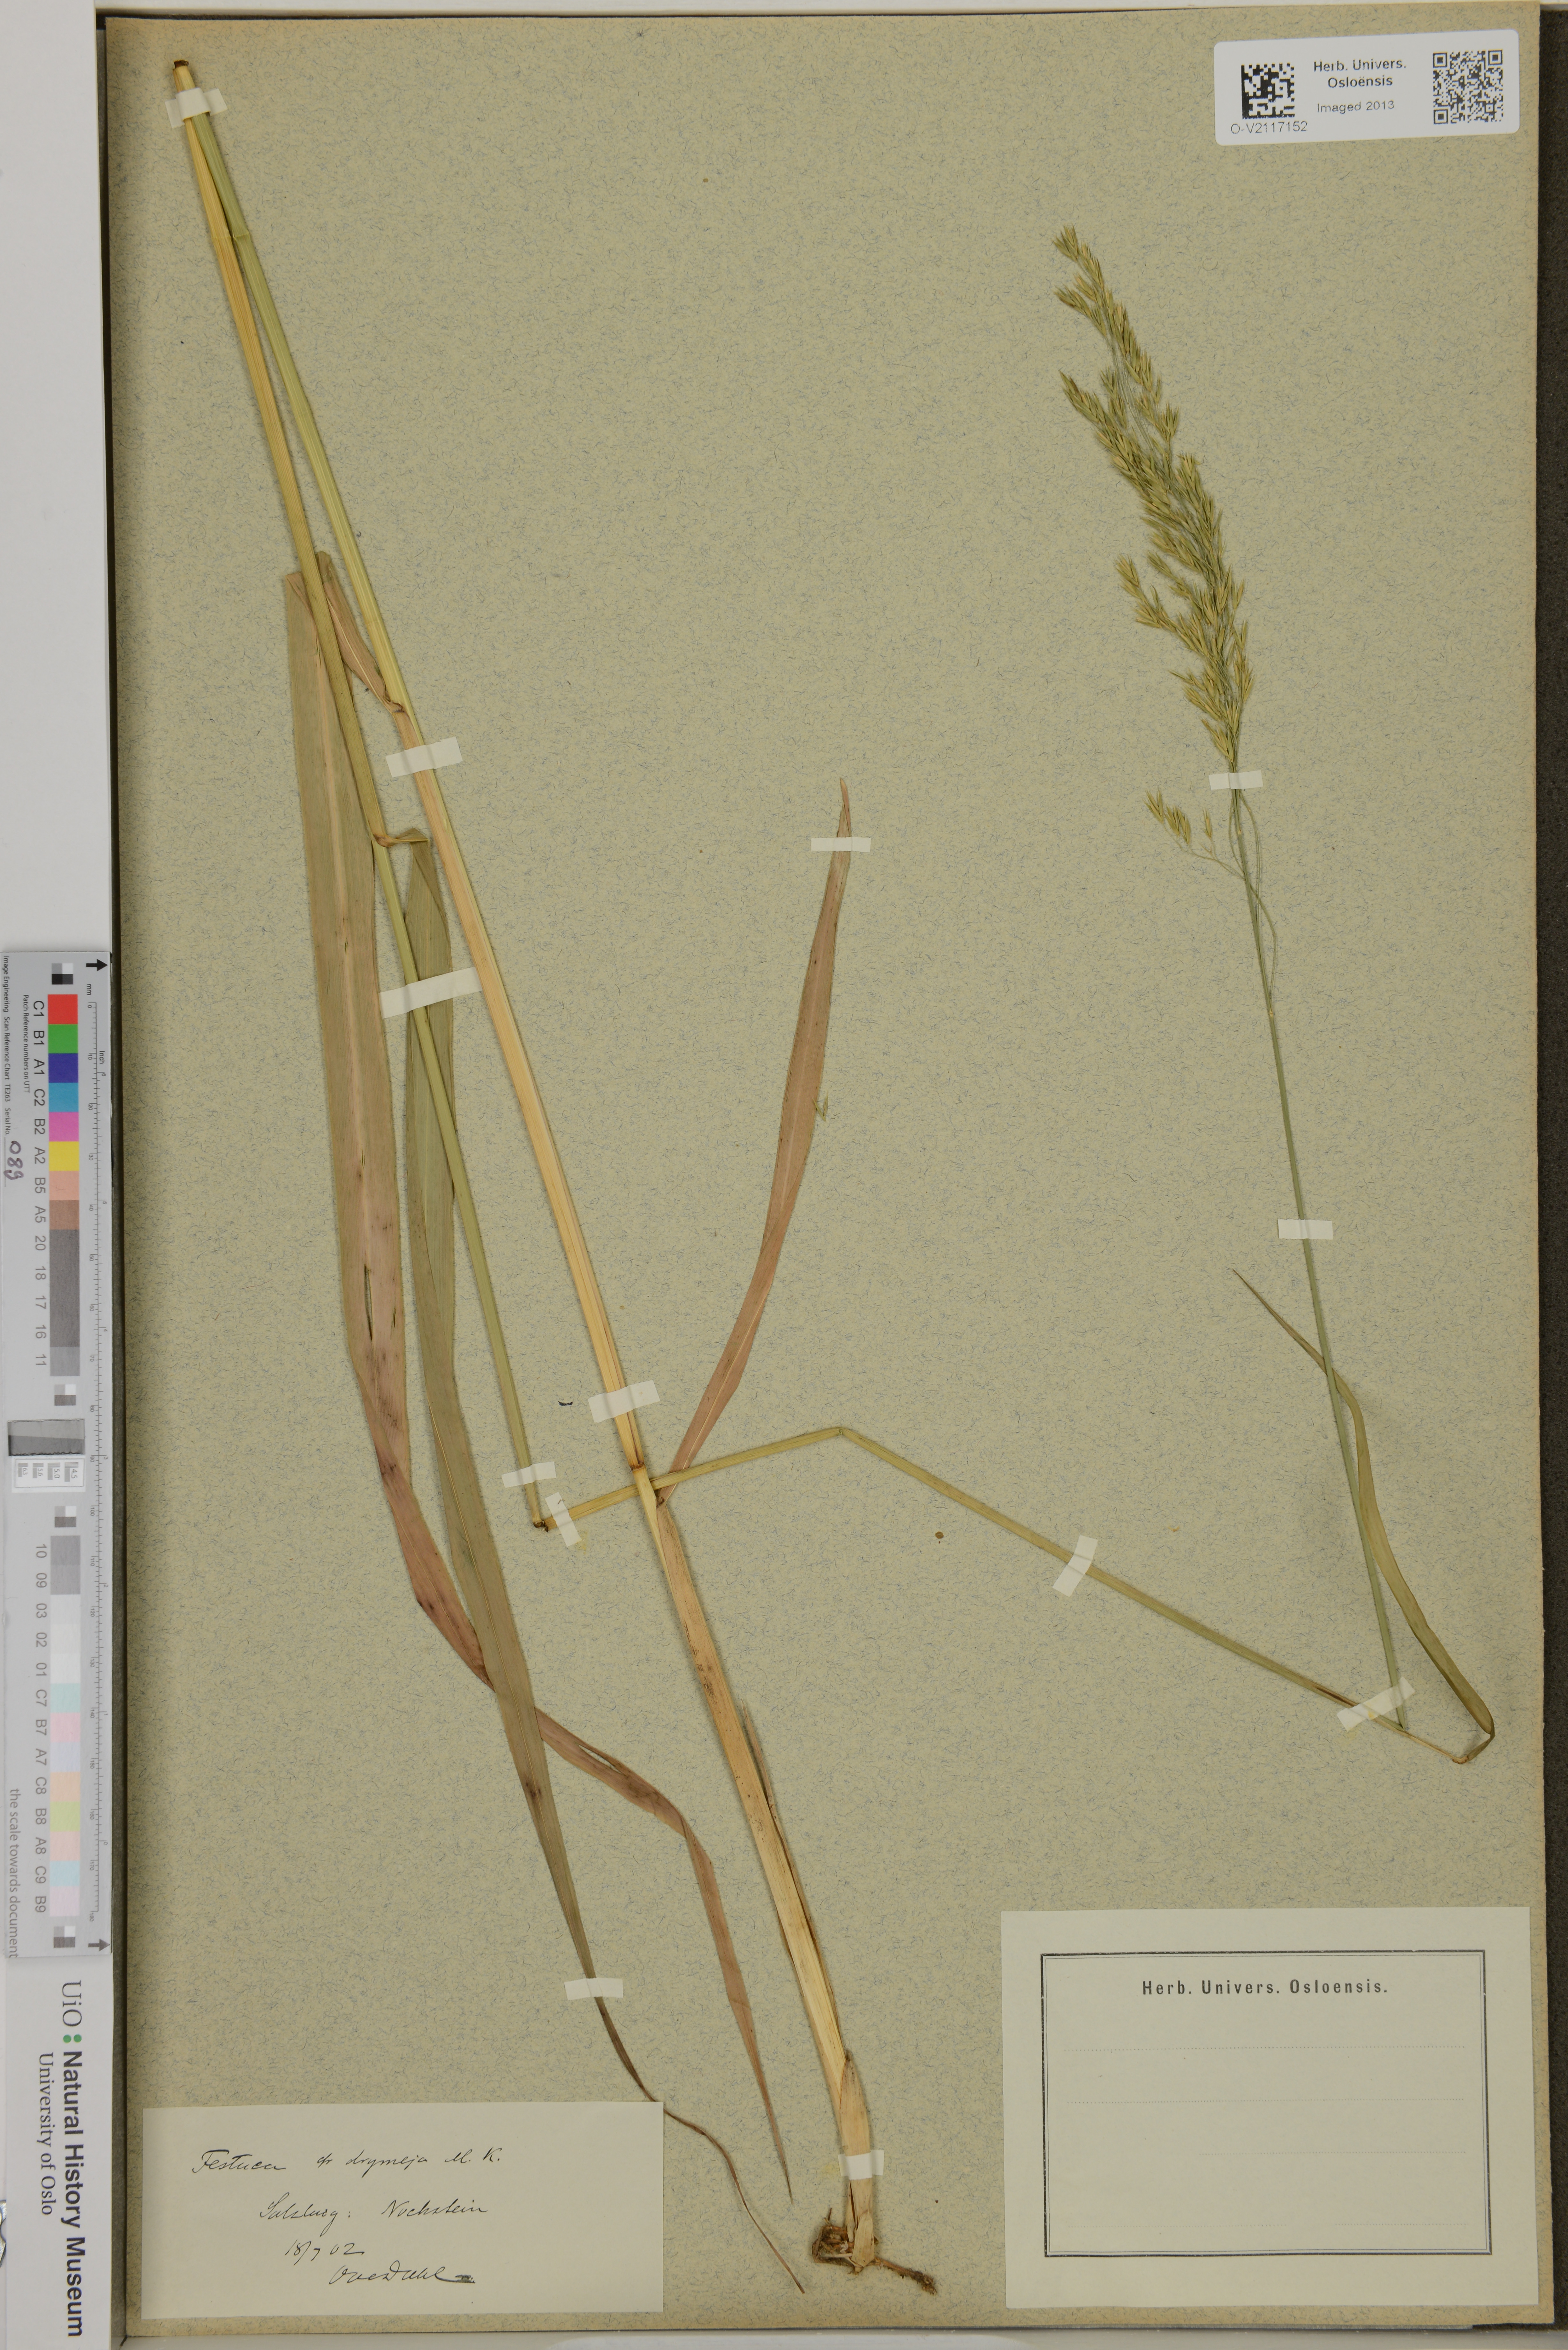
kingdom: Plantae
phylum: Tracheophyta
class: Liliopsida
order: Poales
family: Poaceae
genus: Festuca
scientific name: Festuca drymeja
